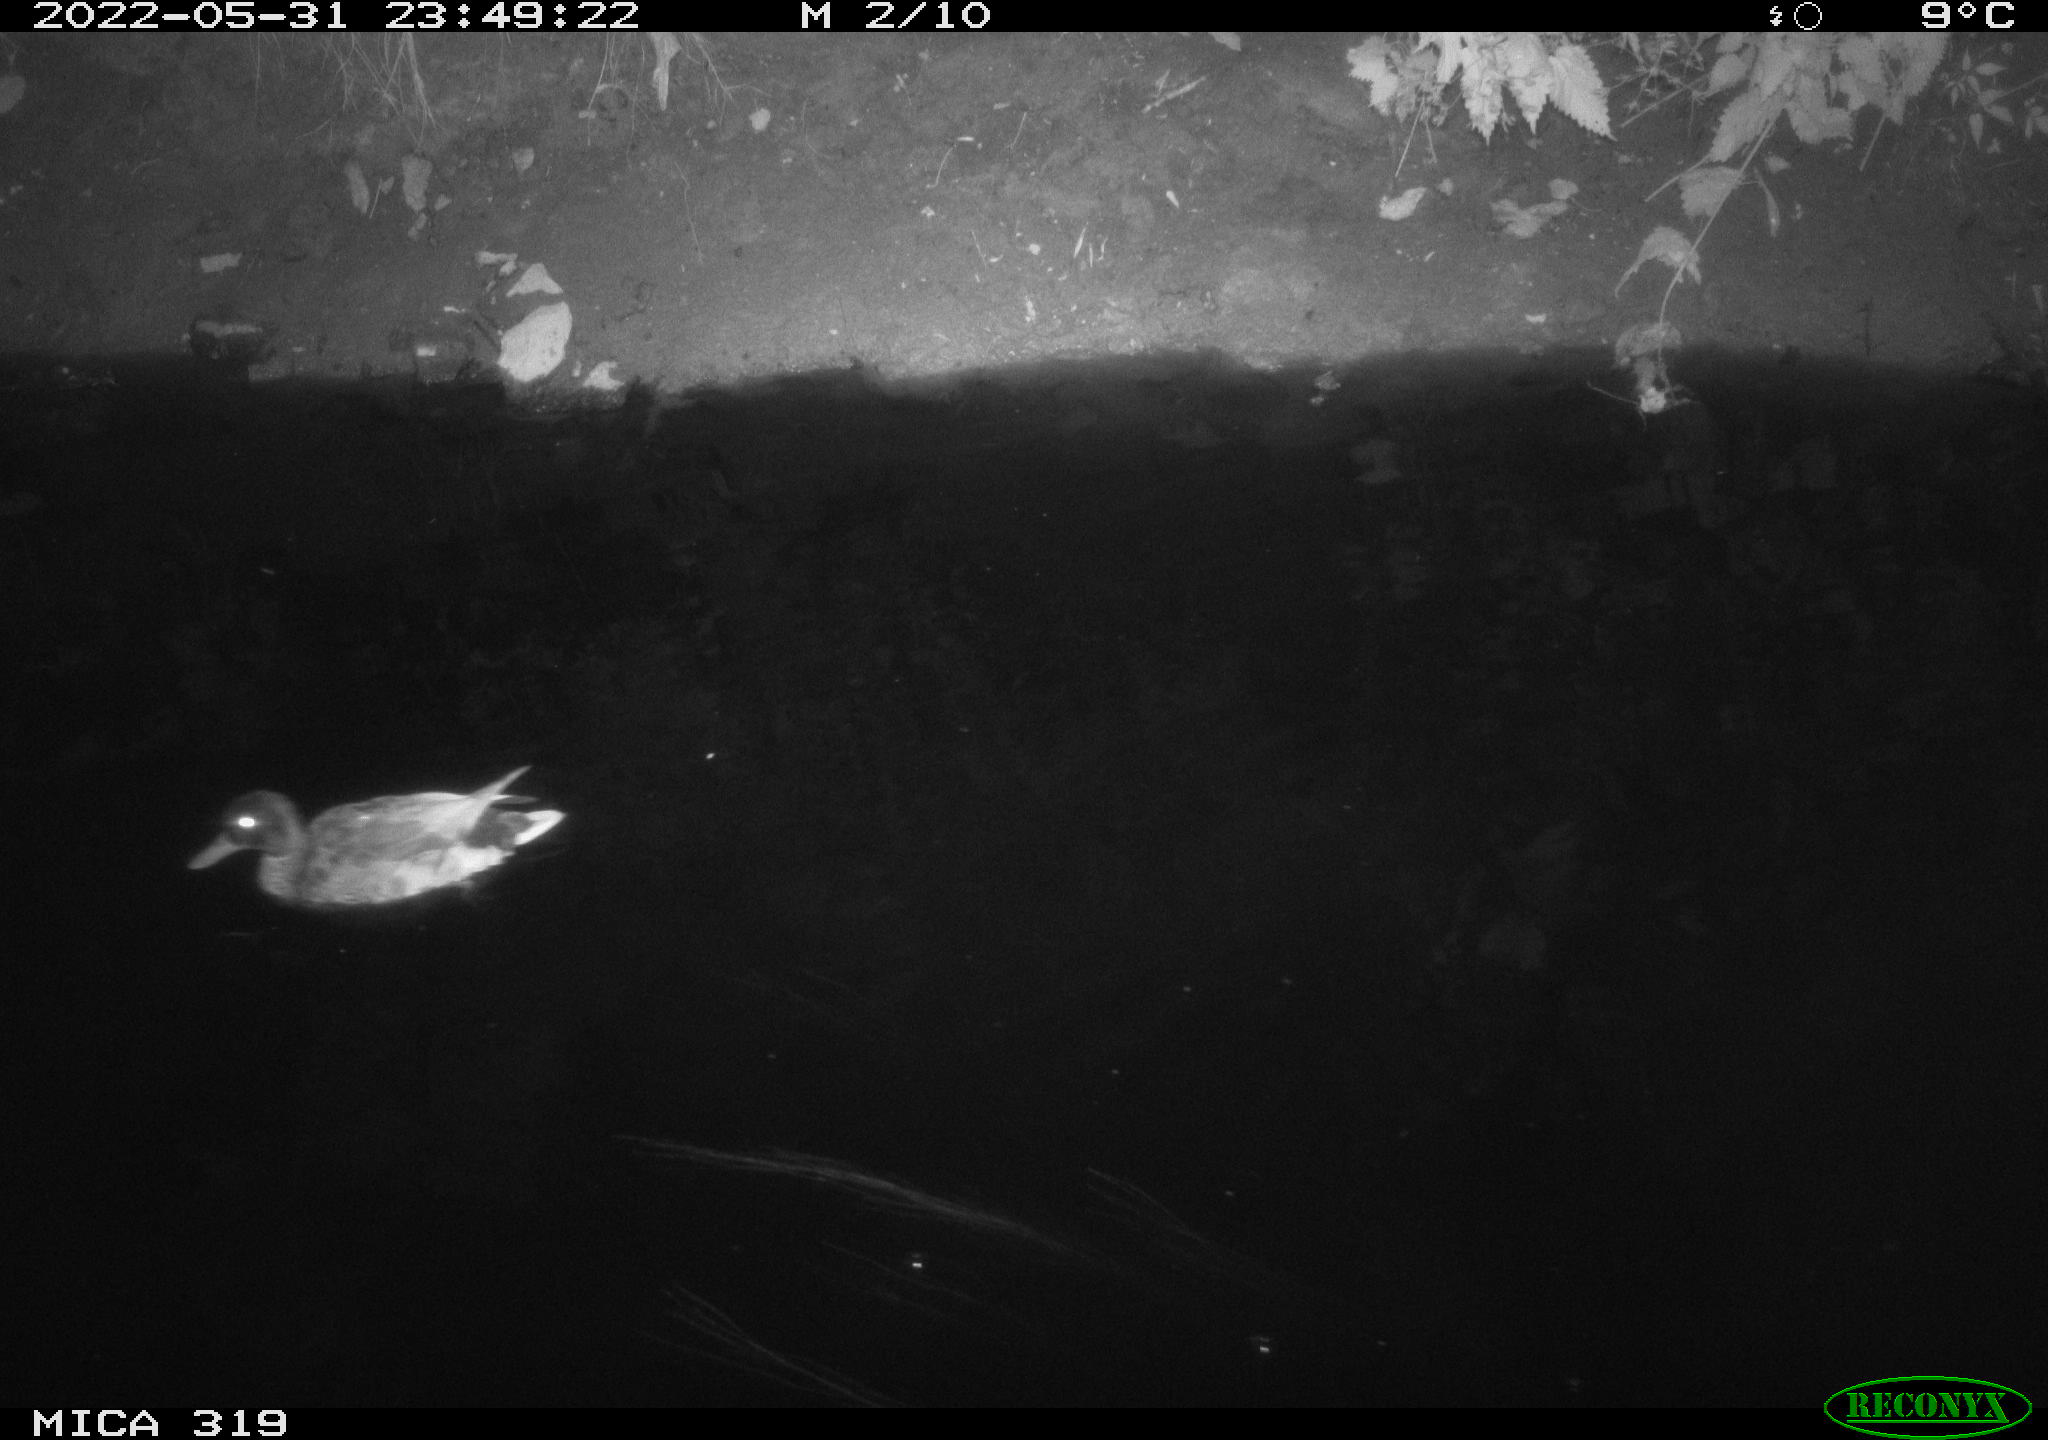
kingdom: Animalia
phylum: Chordata
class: Aves
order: Anseriformes
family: Anatidae
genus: Anas
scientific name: Anas
